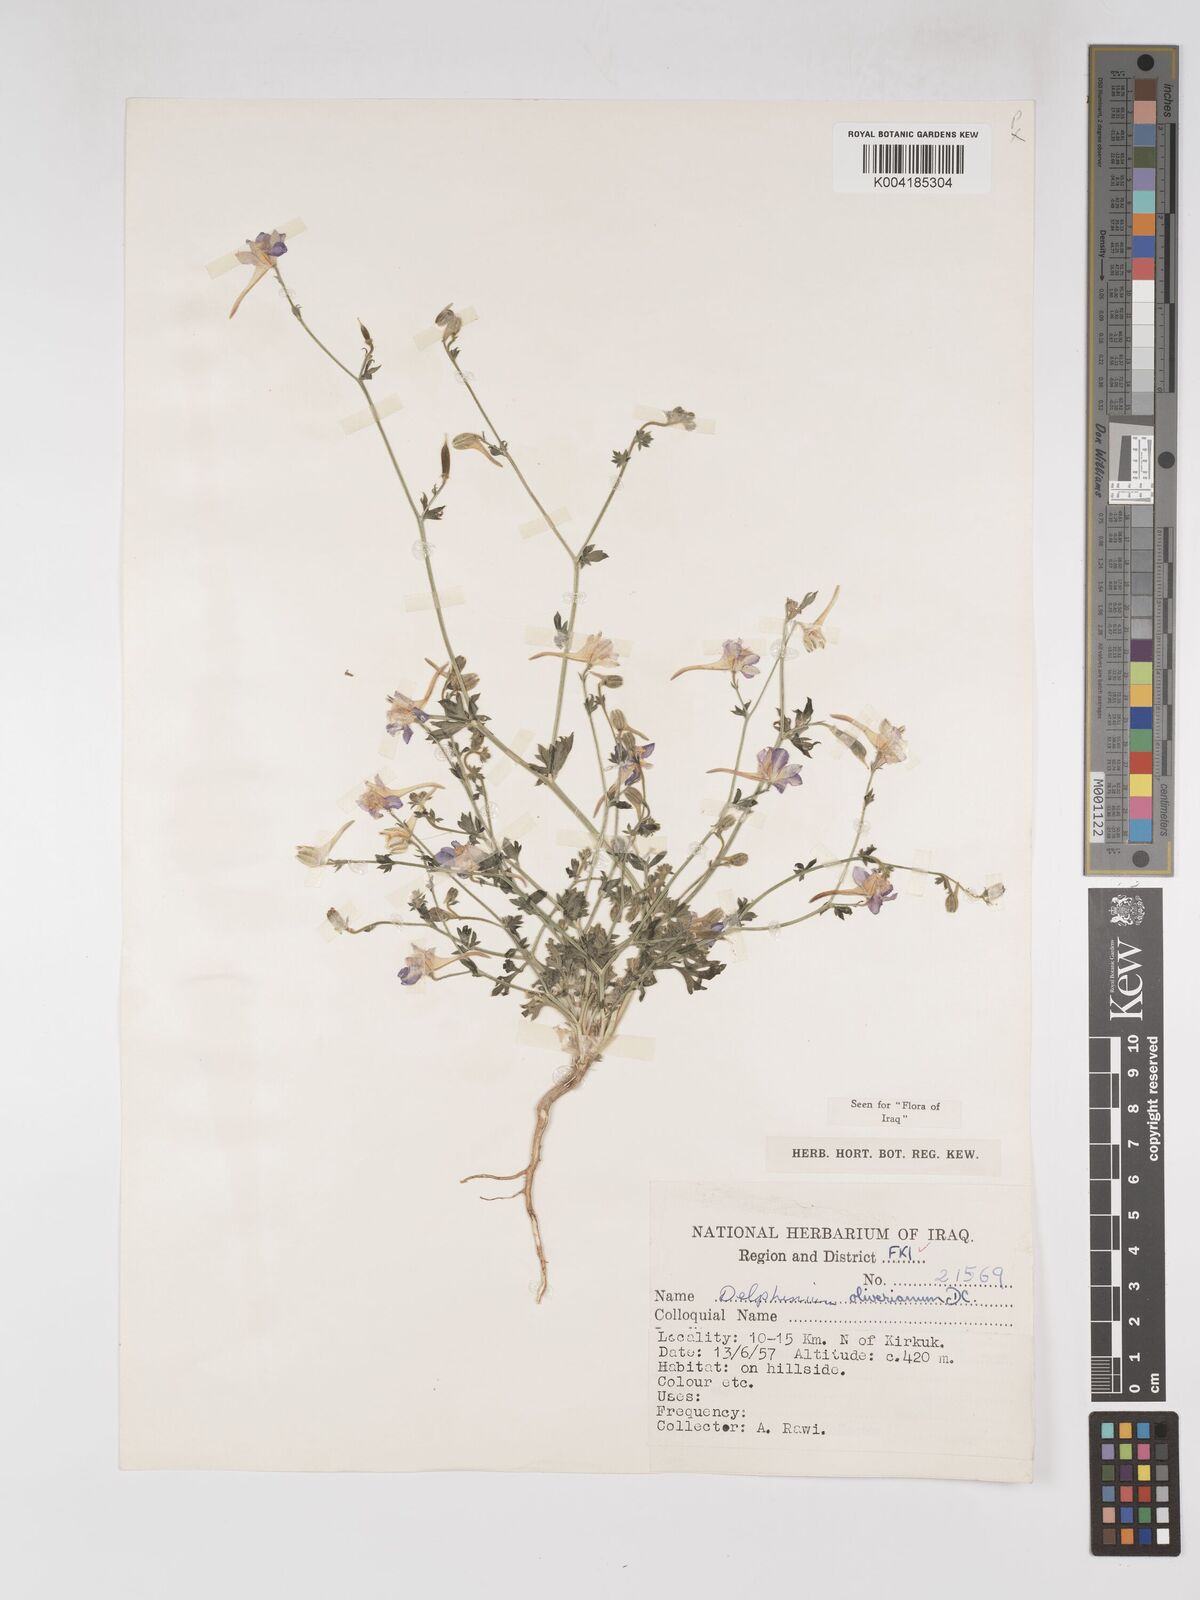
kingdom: Plantae
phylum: Tracheophyta
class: Magnoliopsida
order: Ranunculales
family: Ranunculaceae
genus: Delphinium
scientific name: Delphinium oliverianum
